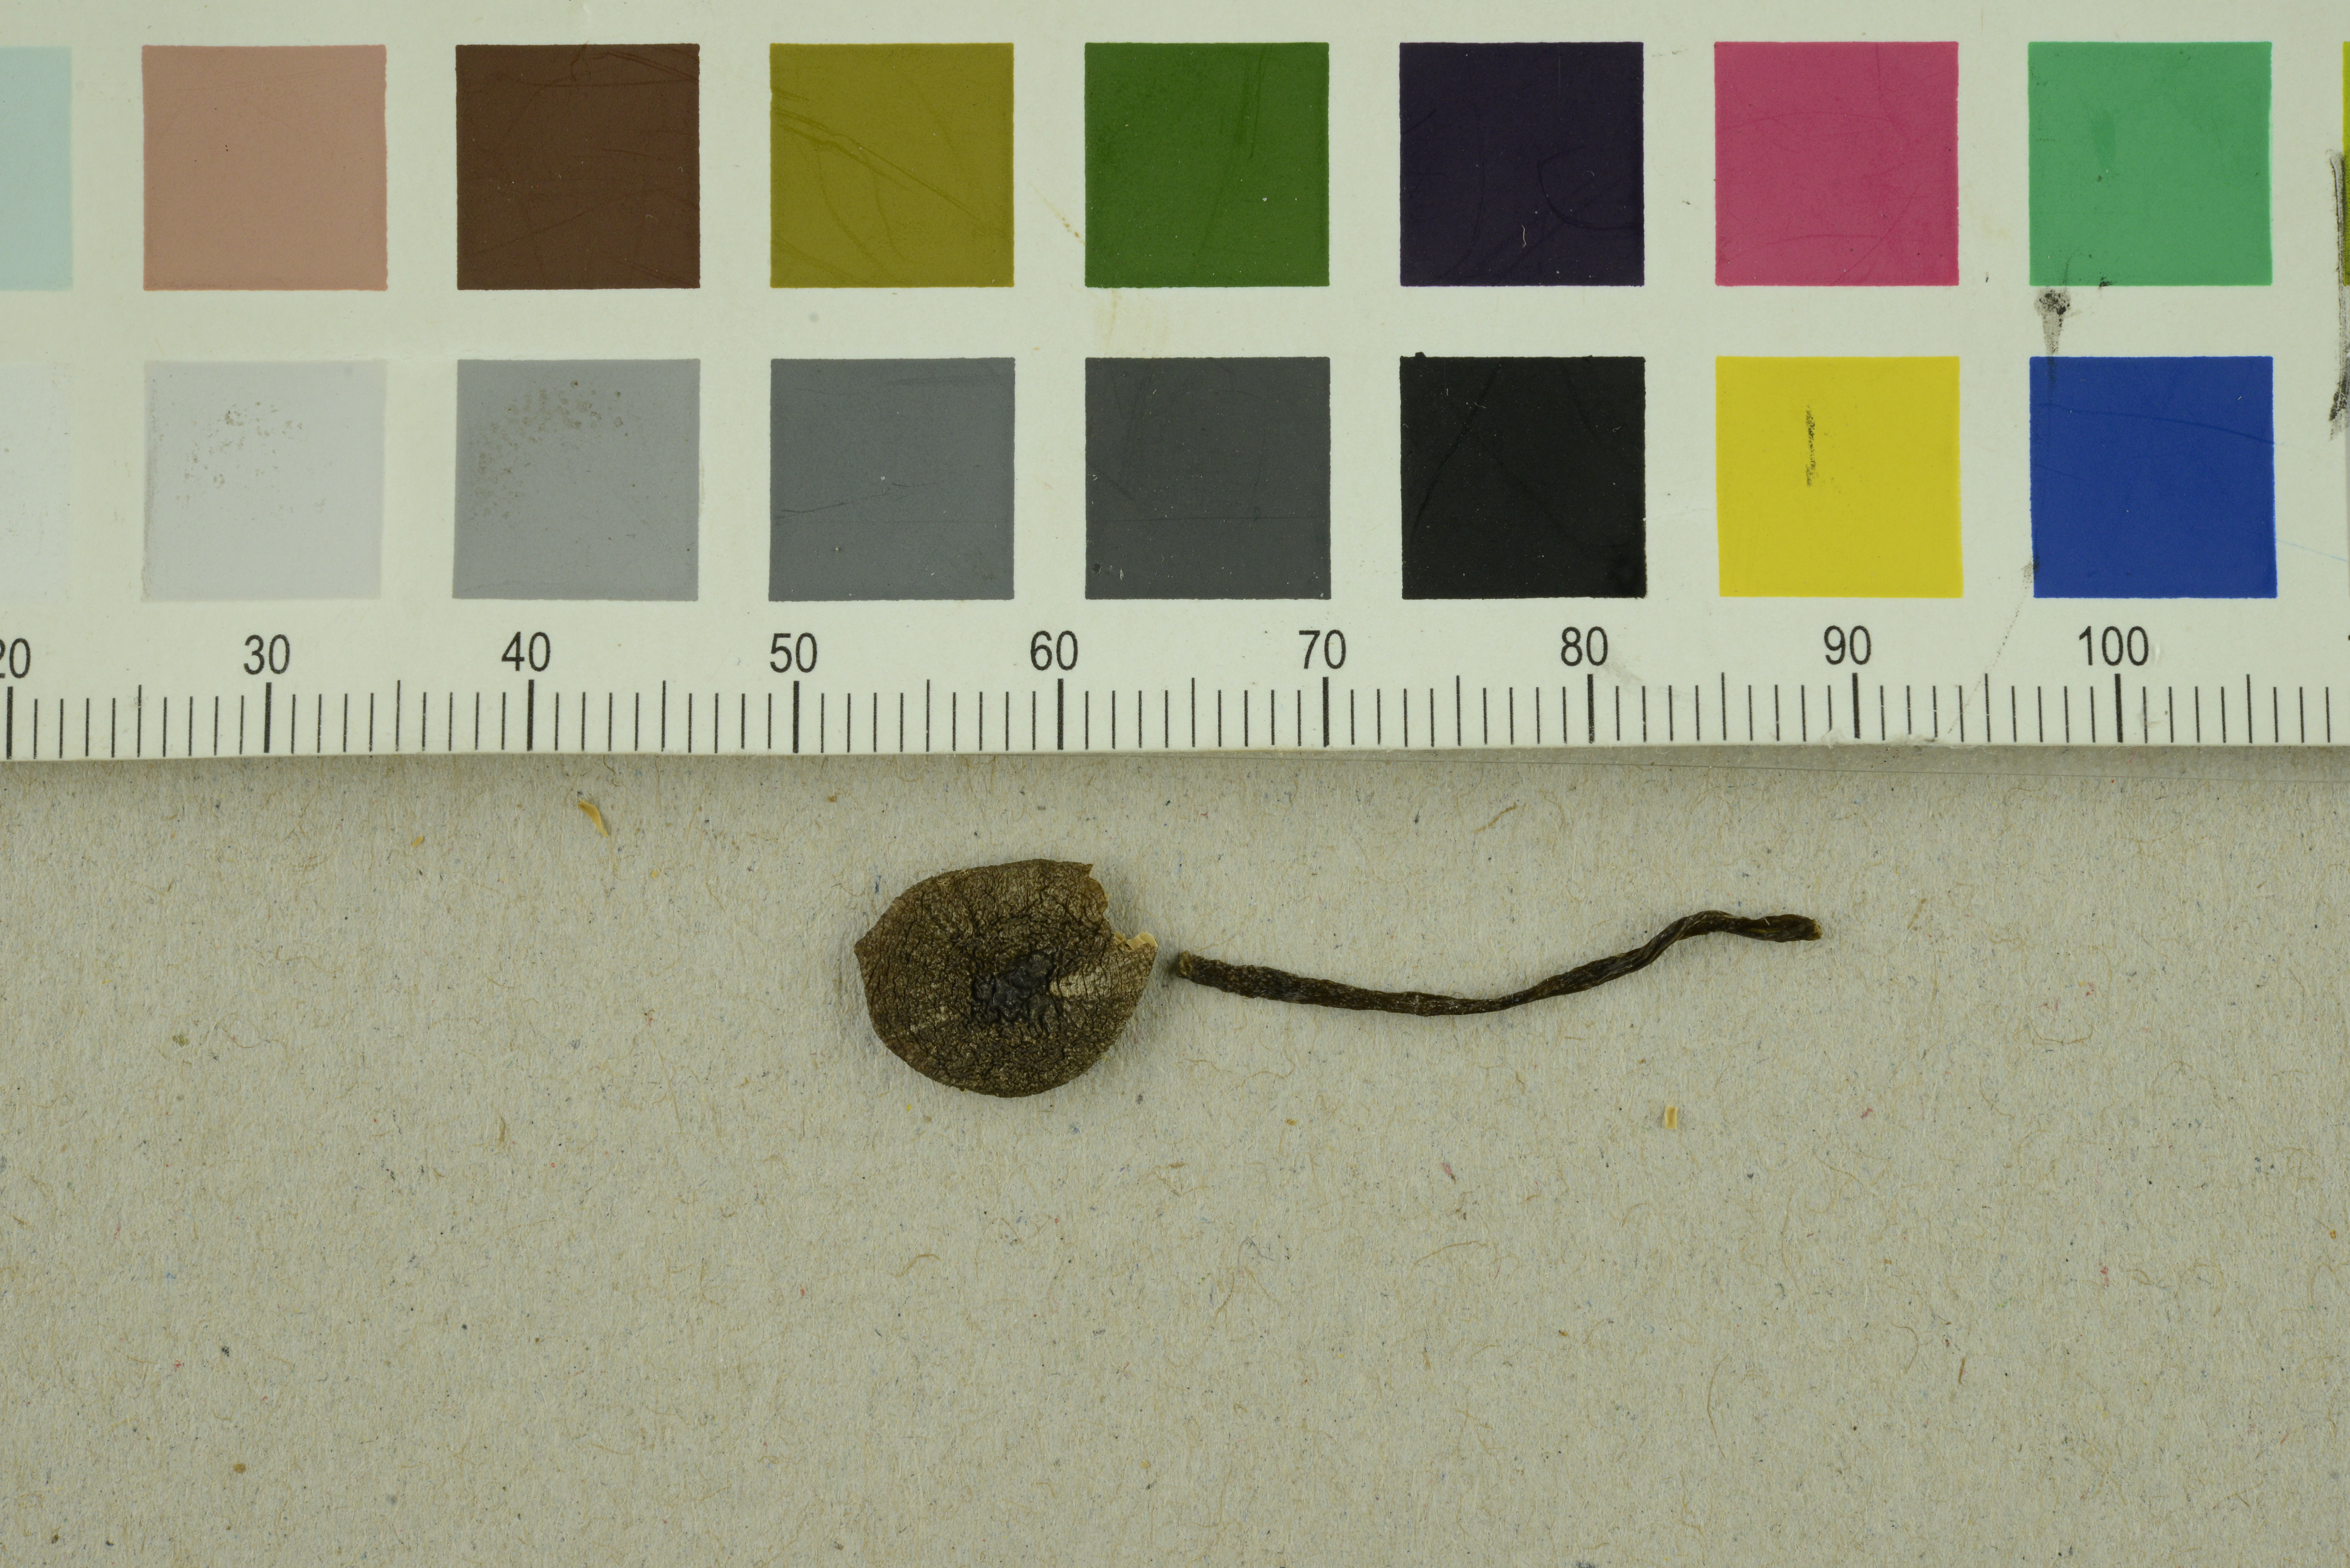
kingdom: Fungi
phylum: Basidiomycota
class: Agaricomycetes
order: Agaricales
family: Entolomataceae
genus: Entoloma
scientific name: Entoloma asprellum
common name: Roughened pinkgill
